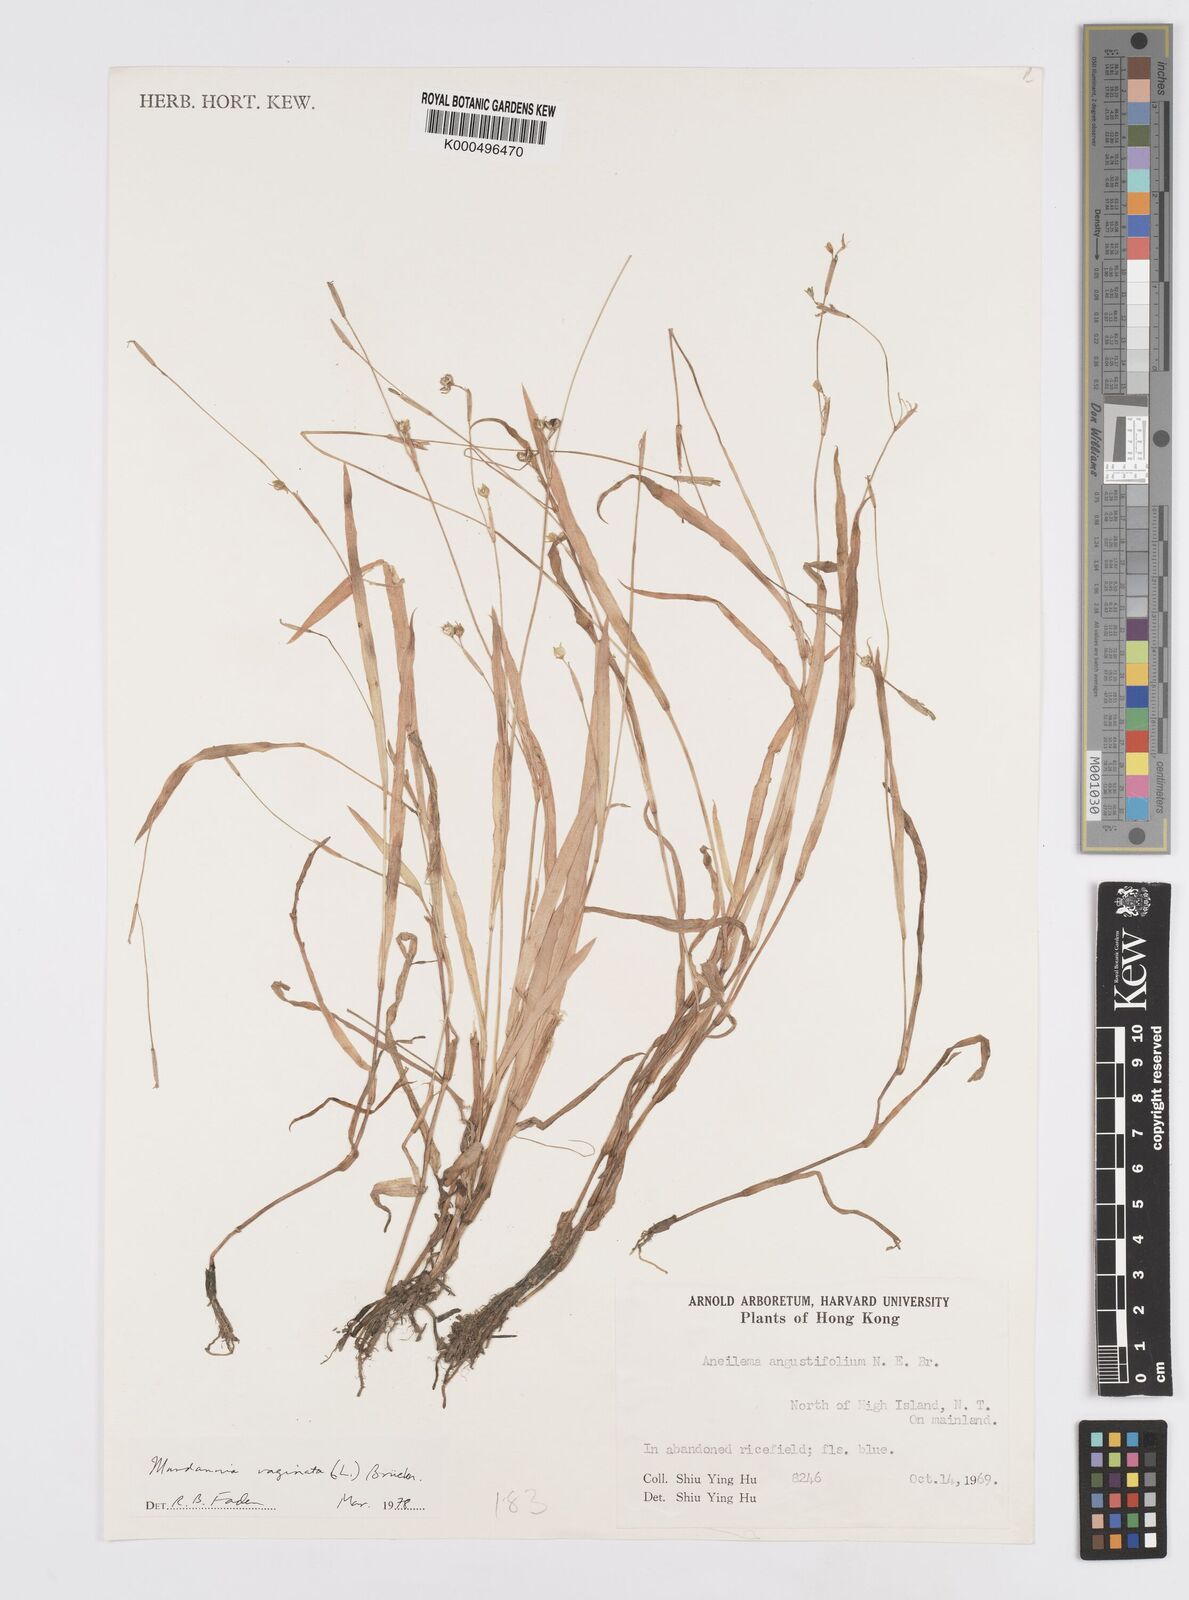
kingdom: Plantae
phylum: Tracheophyta
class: Liliopsida
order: Commelinales
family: Commelinaceae
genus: Murdannia
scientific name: Murdannia
